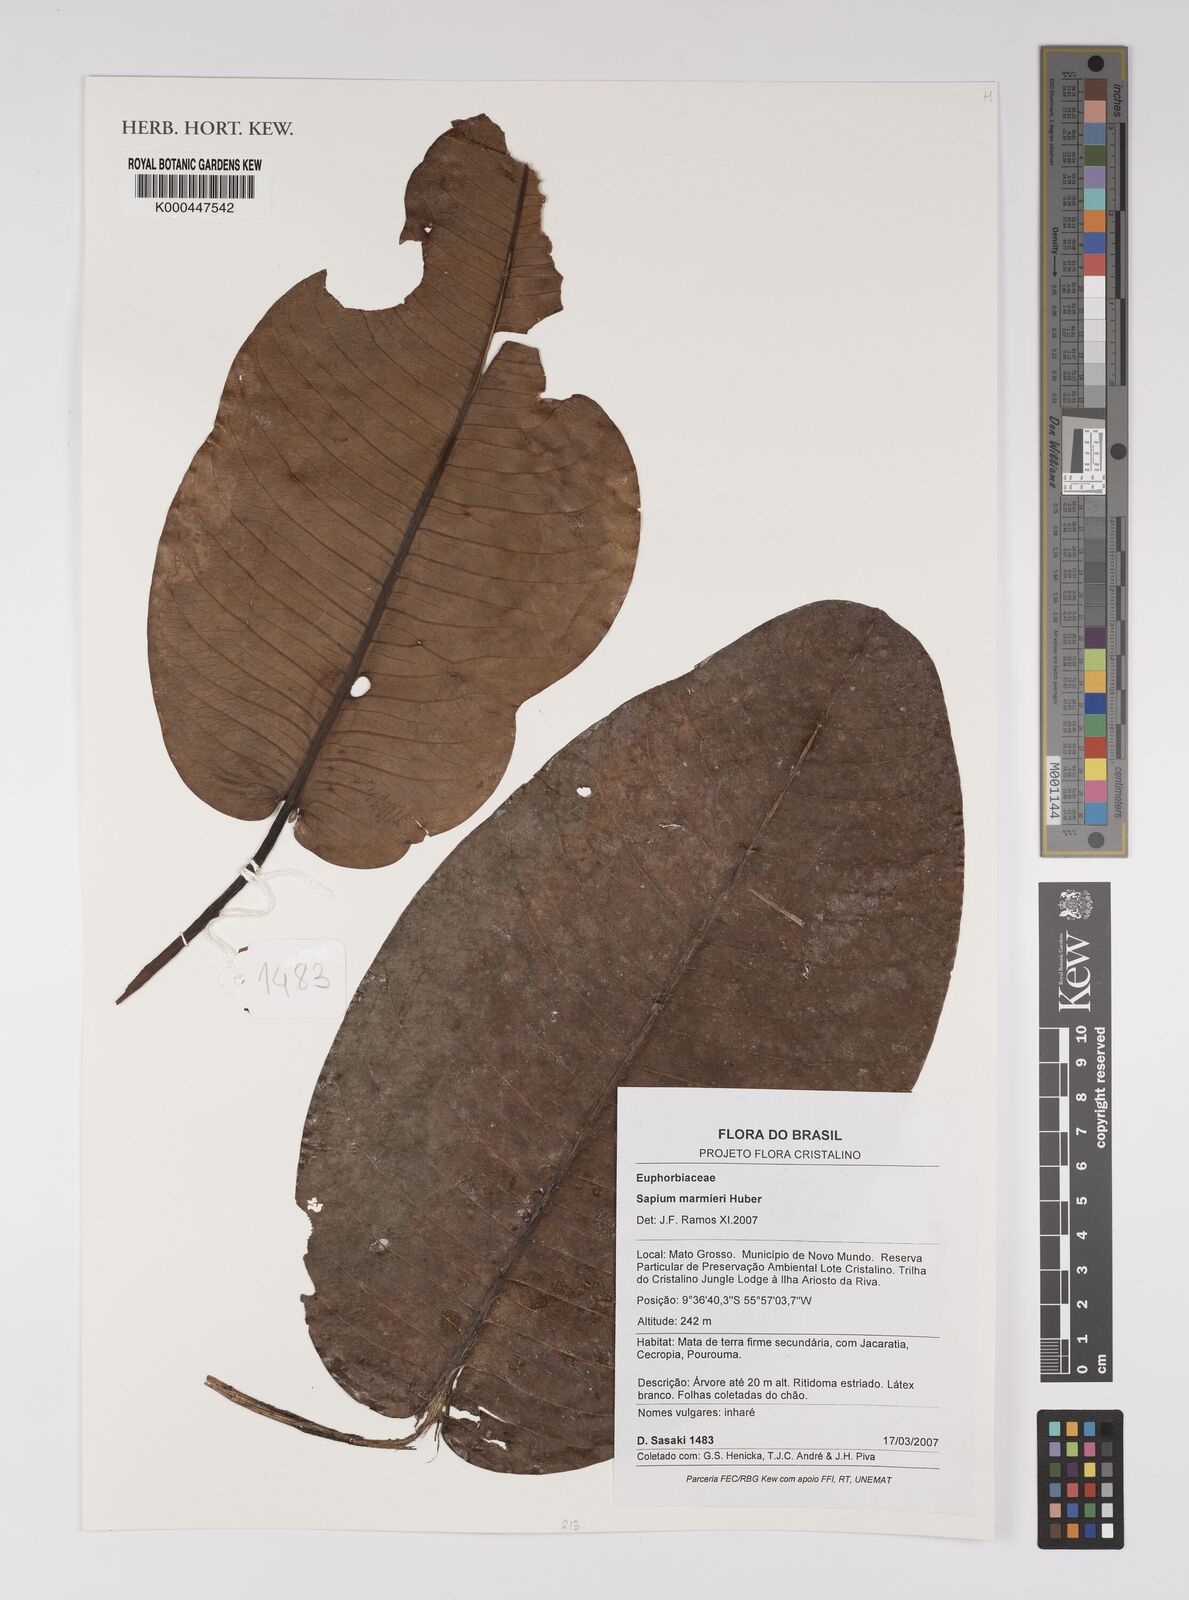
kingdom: Plantae
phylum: Tracheophyta
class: Magnoliopsida
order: Malpighiales
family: Euphorbiaceae
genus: Sapium
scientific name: Sapium marmieri
